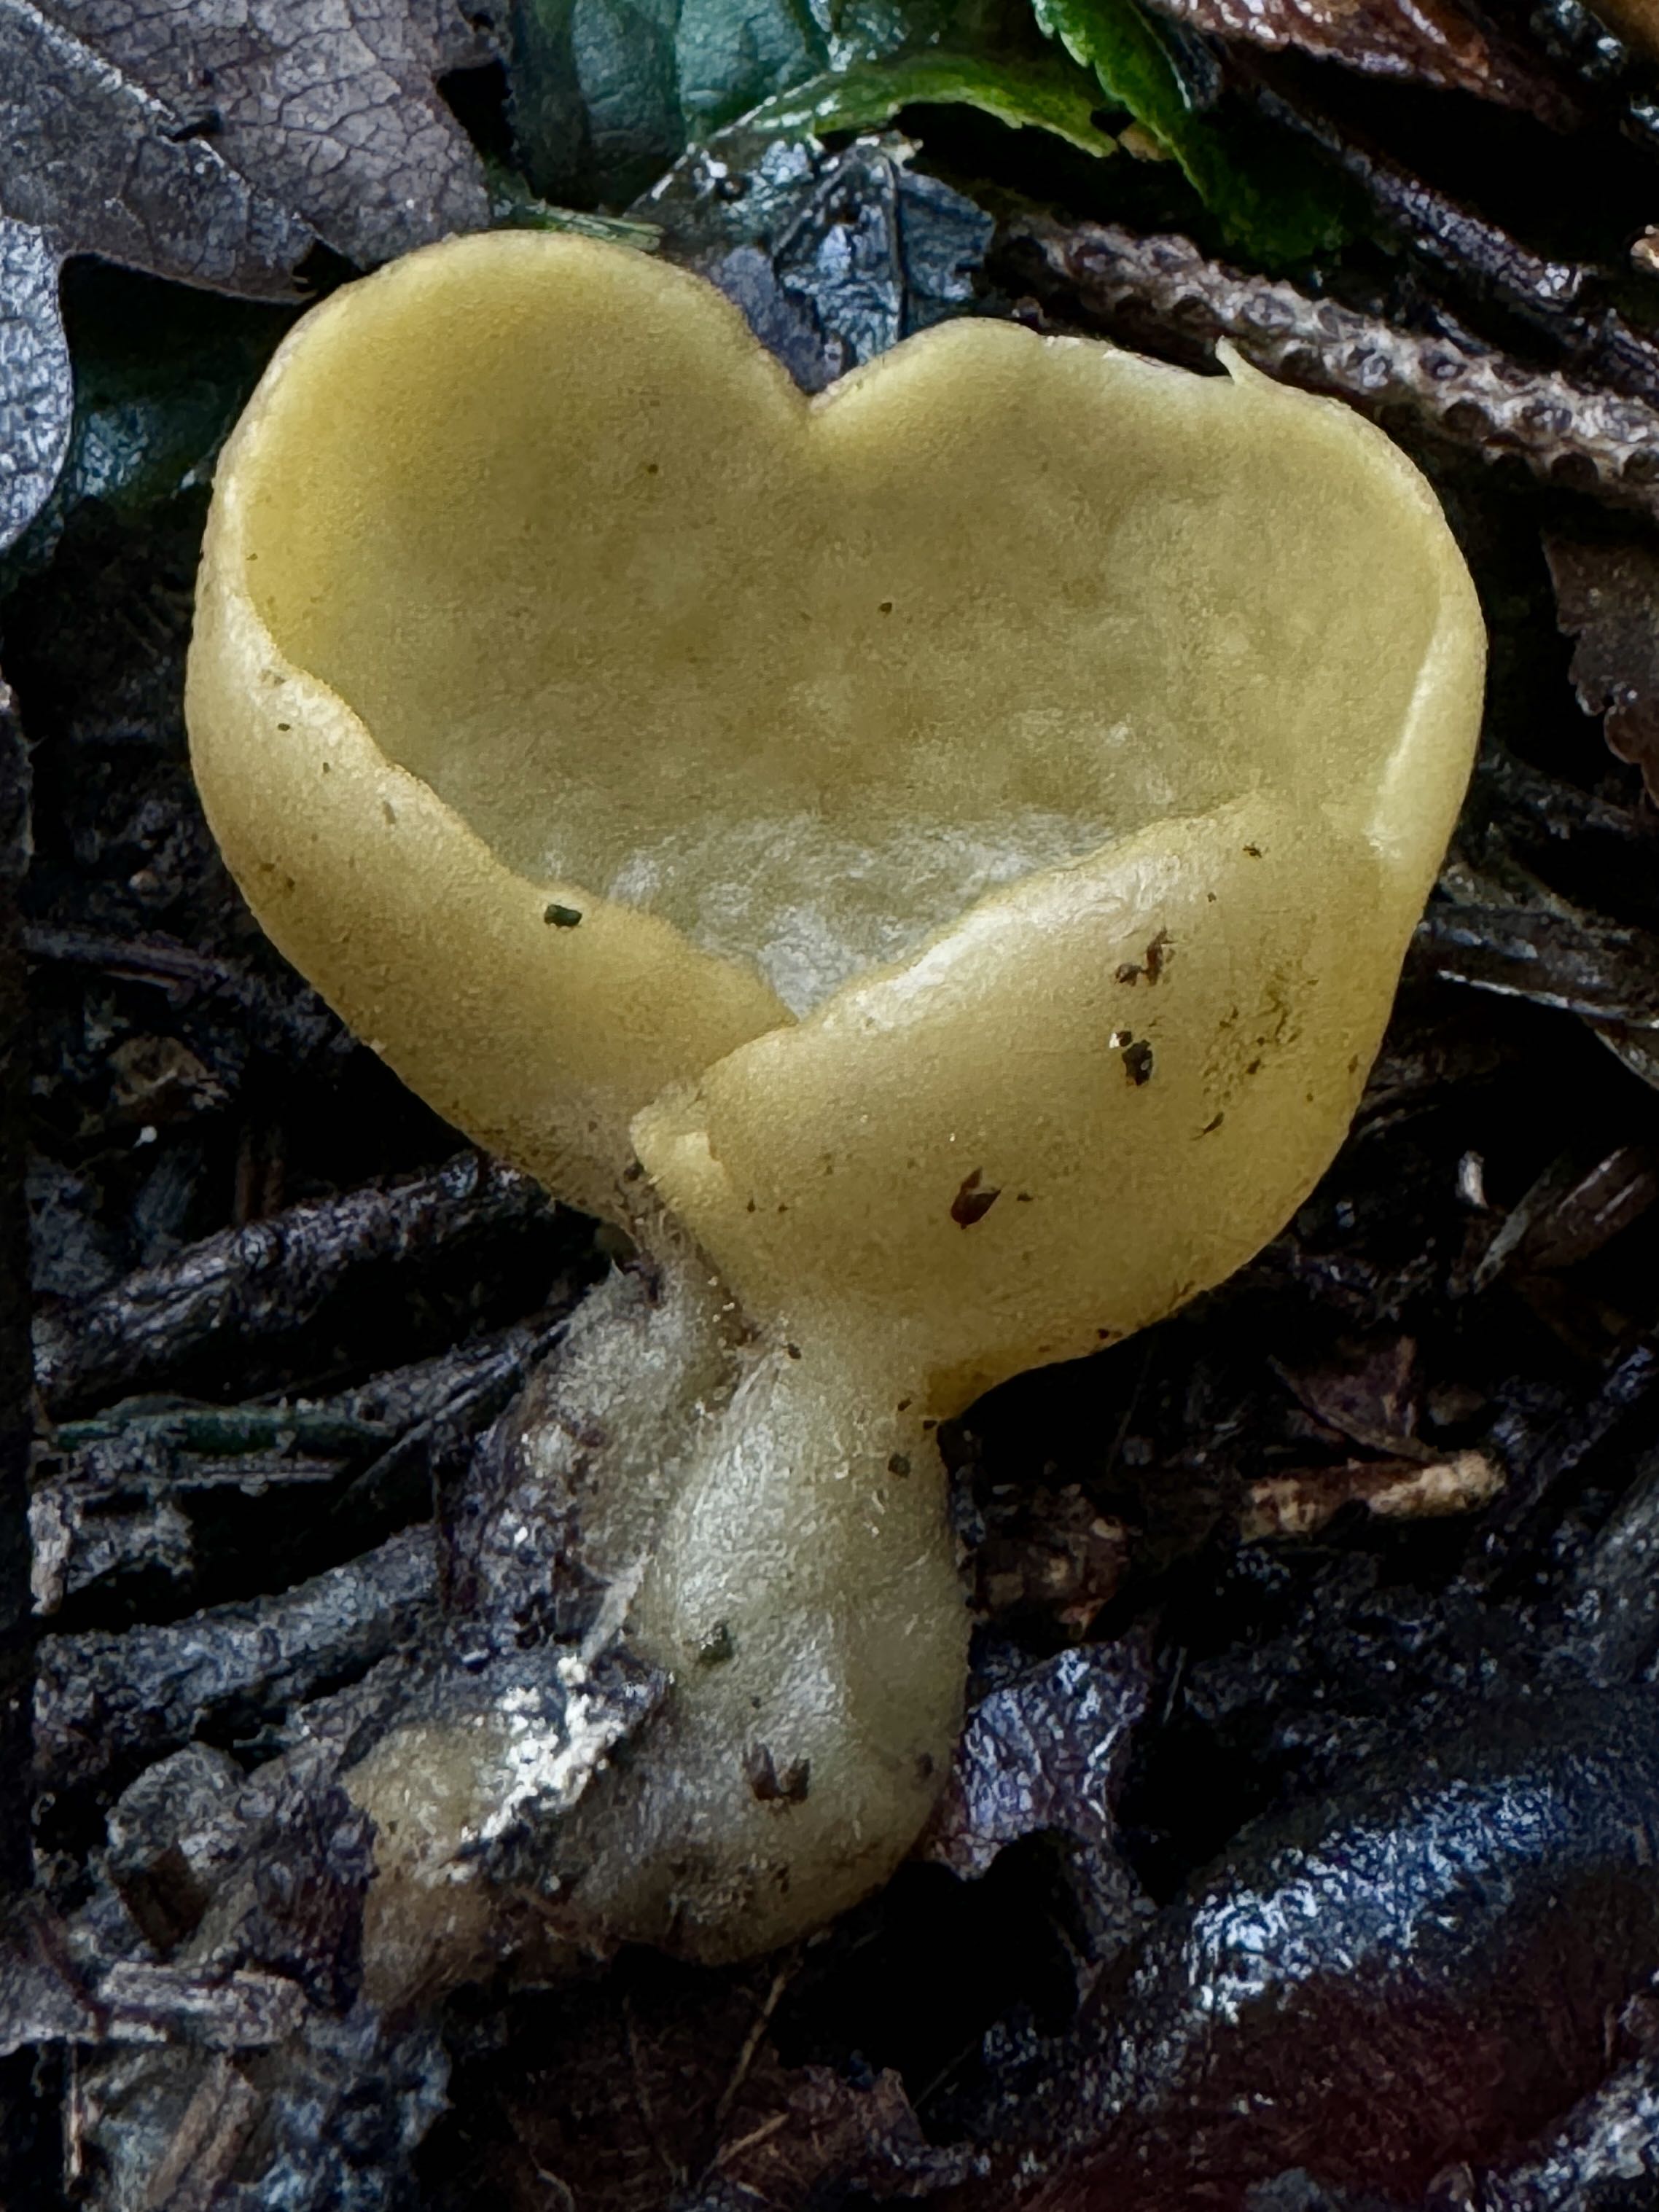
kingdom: Fungi
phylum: Ascomycota
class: Pezizomycetes
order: Pezizales
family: Pyronemataceae
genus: Sowerbyella
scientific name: Sowerbyella radiculata
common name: grøngul rodbæger
